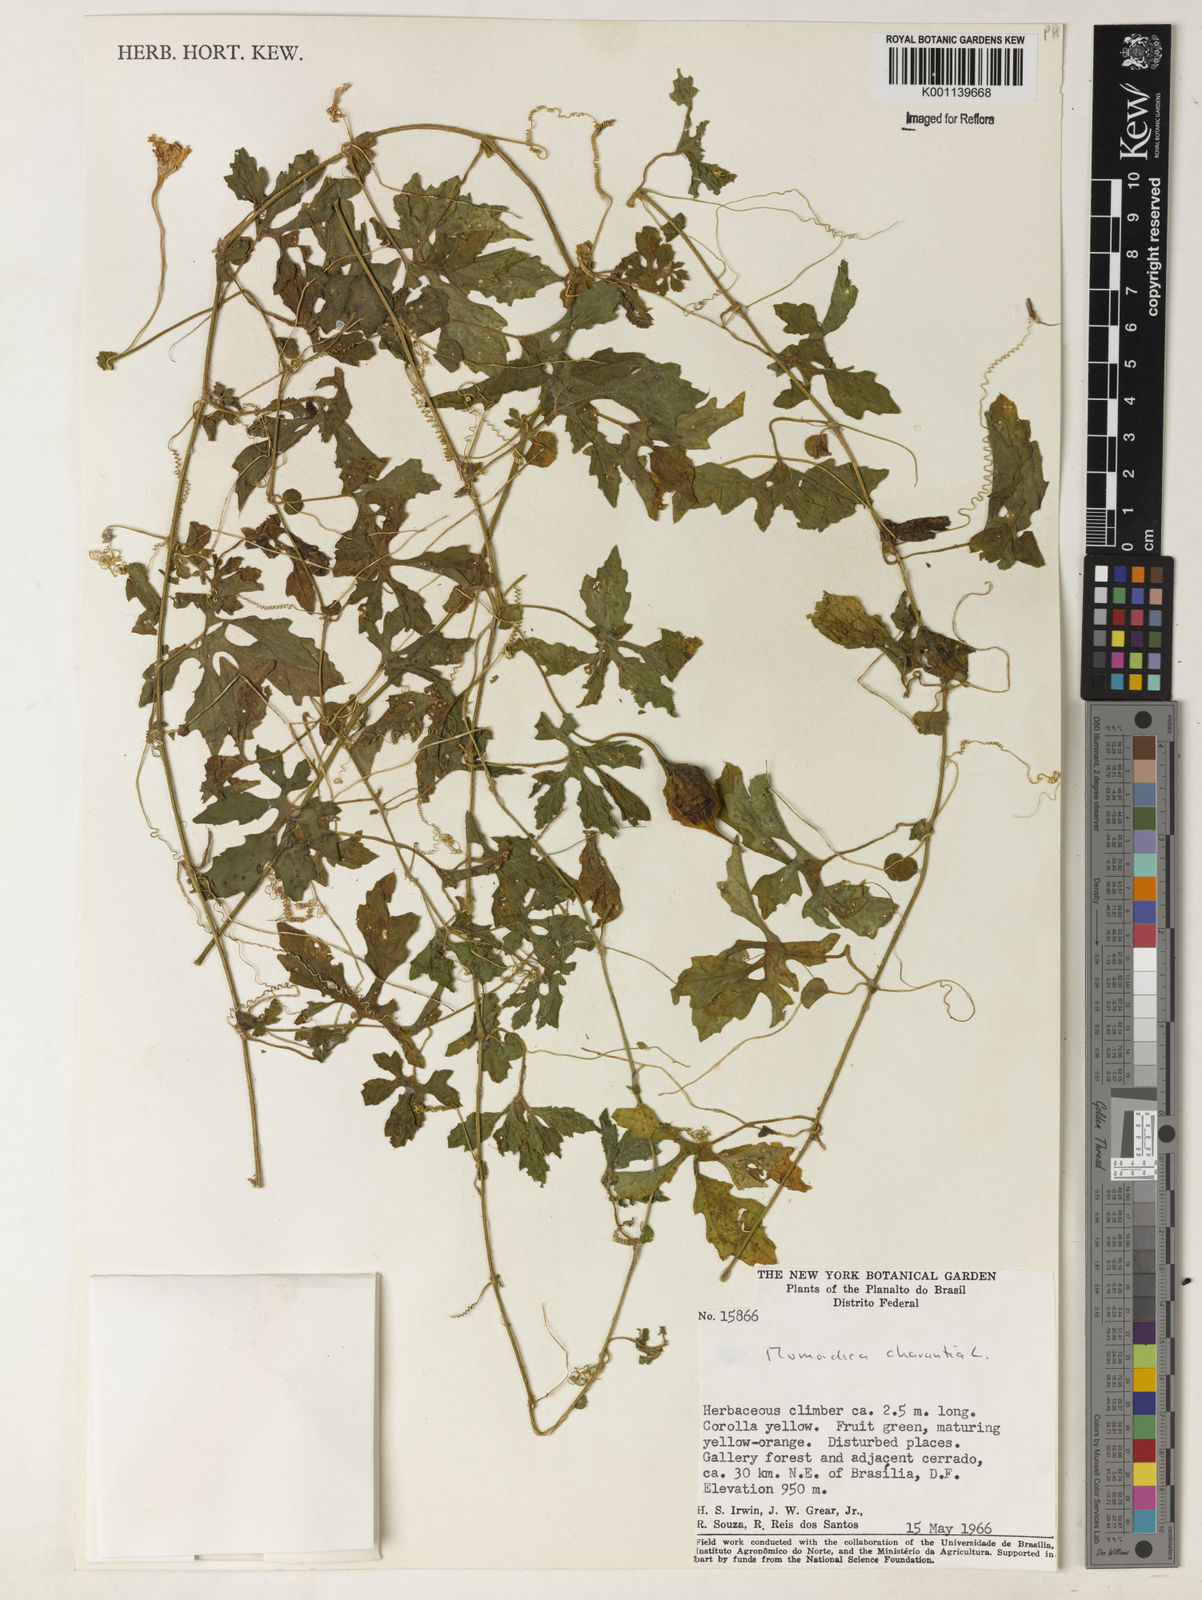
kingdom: Plantae
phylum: Tracheophyta
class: Magnoliopsida
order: Cucurbitales
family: Cucurbitaceae
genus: Momordica
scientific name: Momordica charantia
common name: Balsampear
